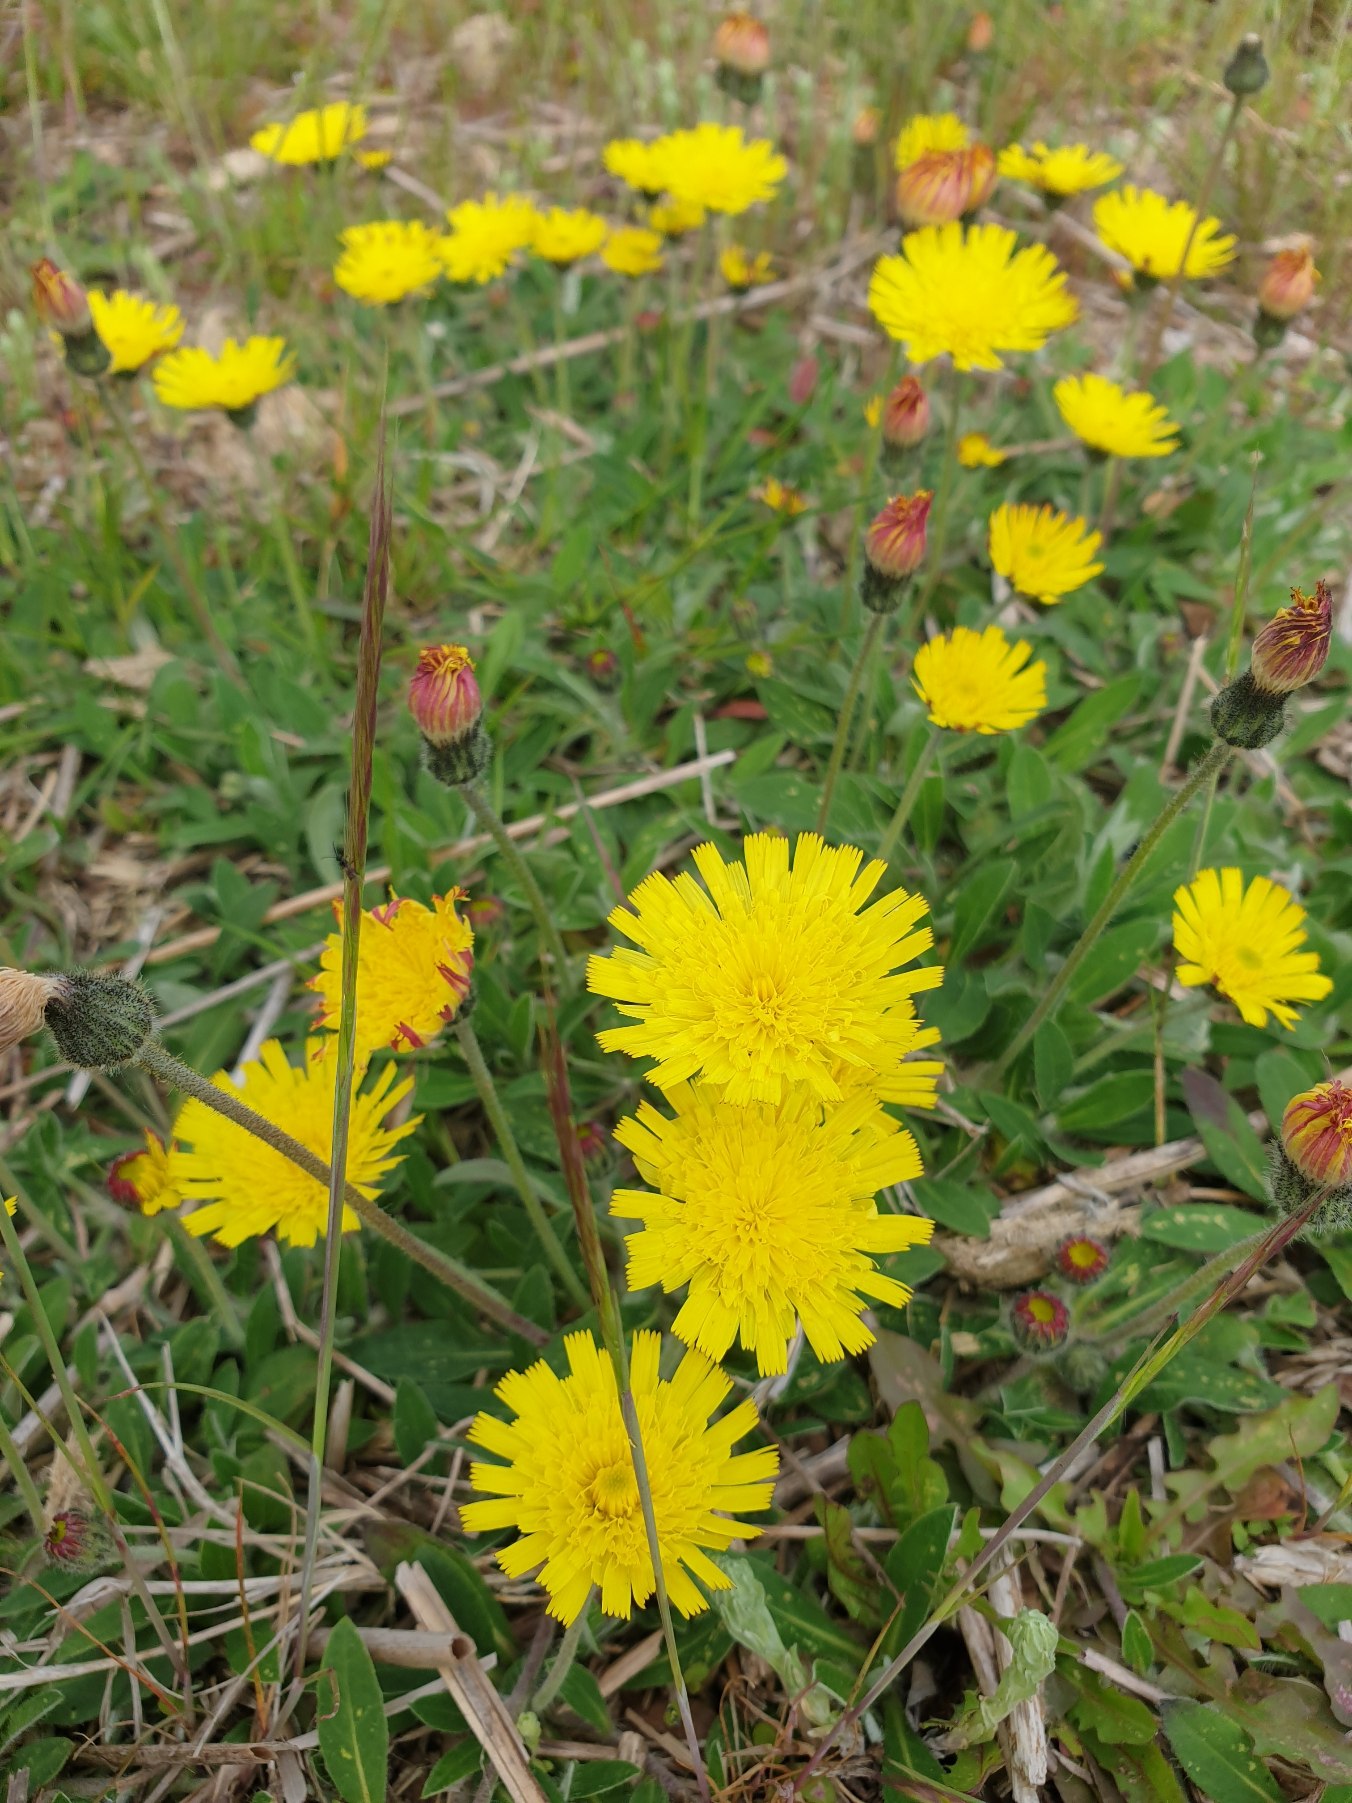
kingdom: Plantae
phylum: Tracheophyta
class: Magnoliopsida
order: Asterales
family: Asteraceae
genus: Pilosella
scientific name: Pilosella officinarum
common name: Håret høgeurt
